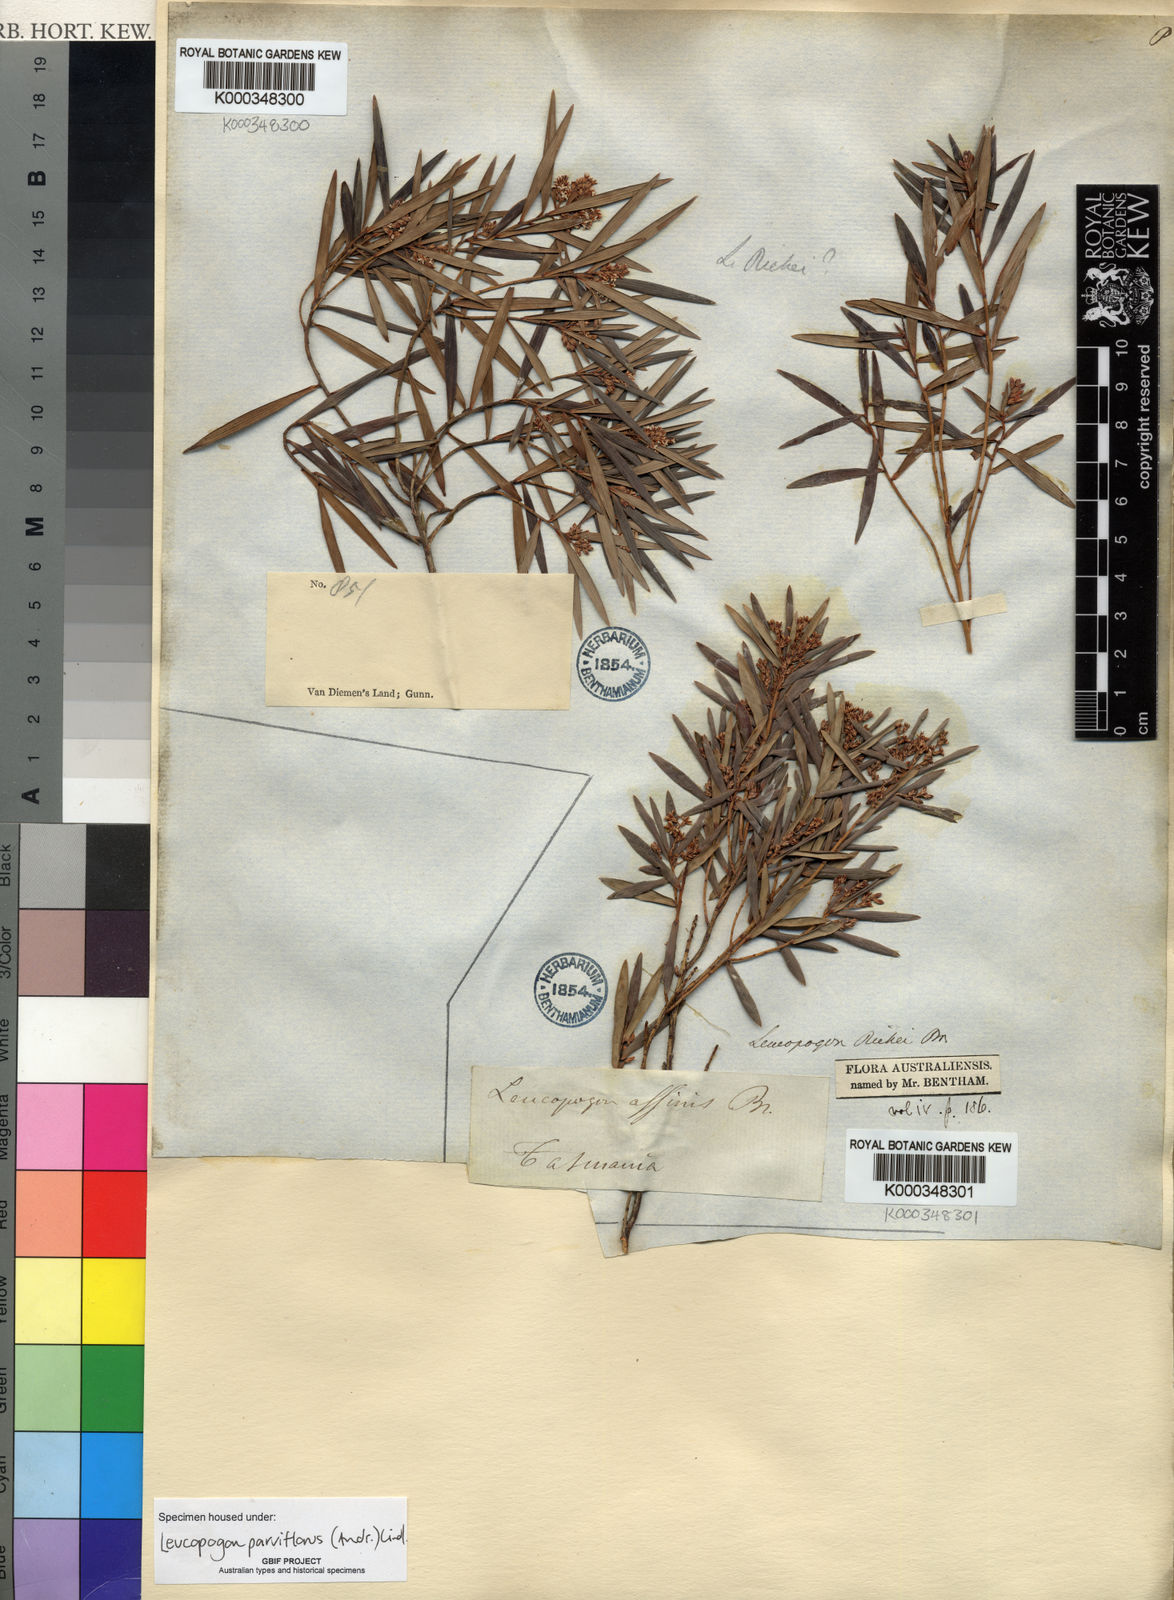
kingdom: Plantae
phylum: Tracheophyta
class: Magnoliopsida
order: Ericales
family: Ericaceae
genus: Leptecophylla
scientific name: Leptecophylla parvifolia
